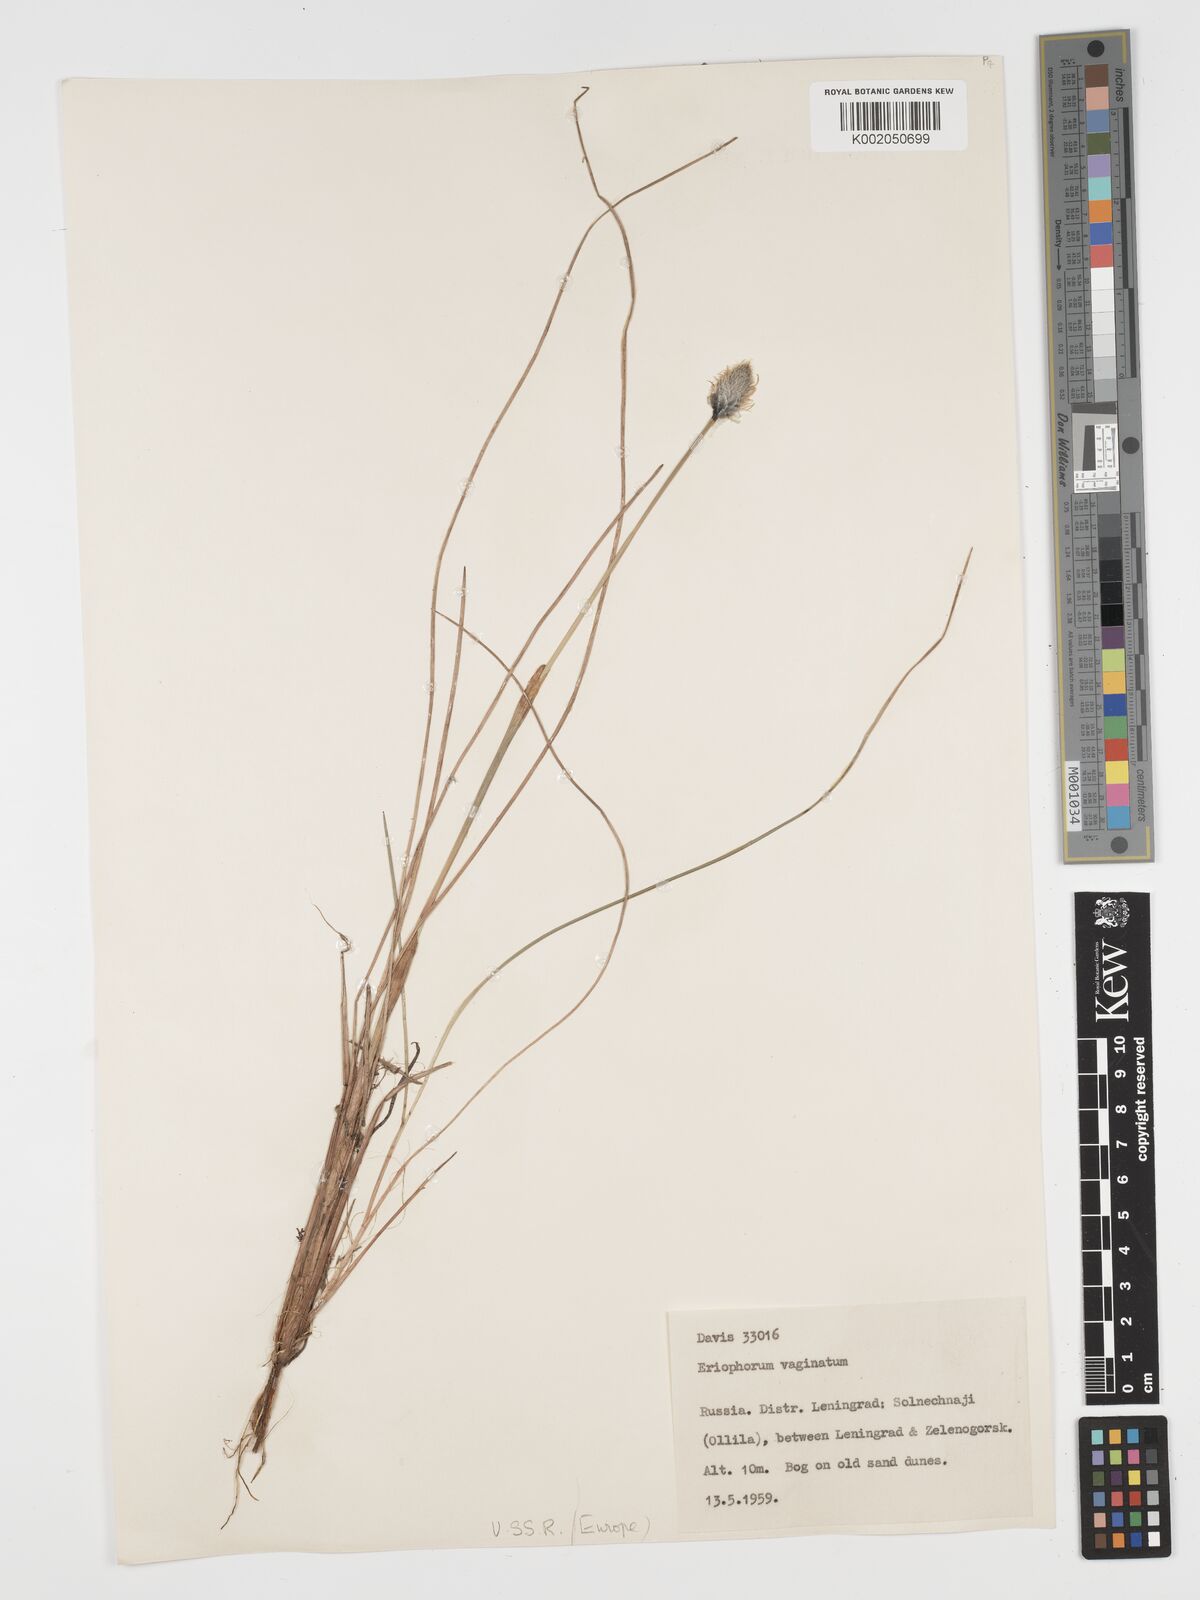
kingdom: Plantae
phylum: Tracheophyta
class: Liliopsida
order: Poales
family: Cyperaceae
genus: Eriophorum
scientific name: Eriophorum vaginatum
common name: Hare's-tail cottongrass
